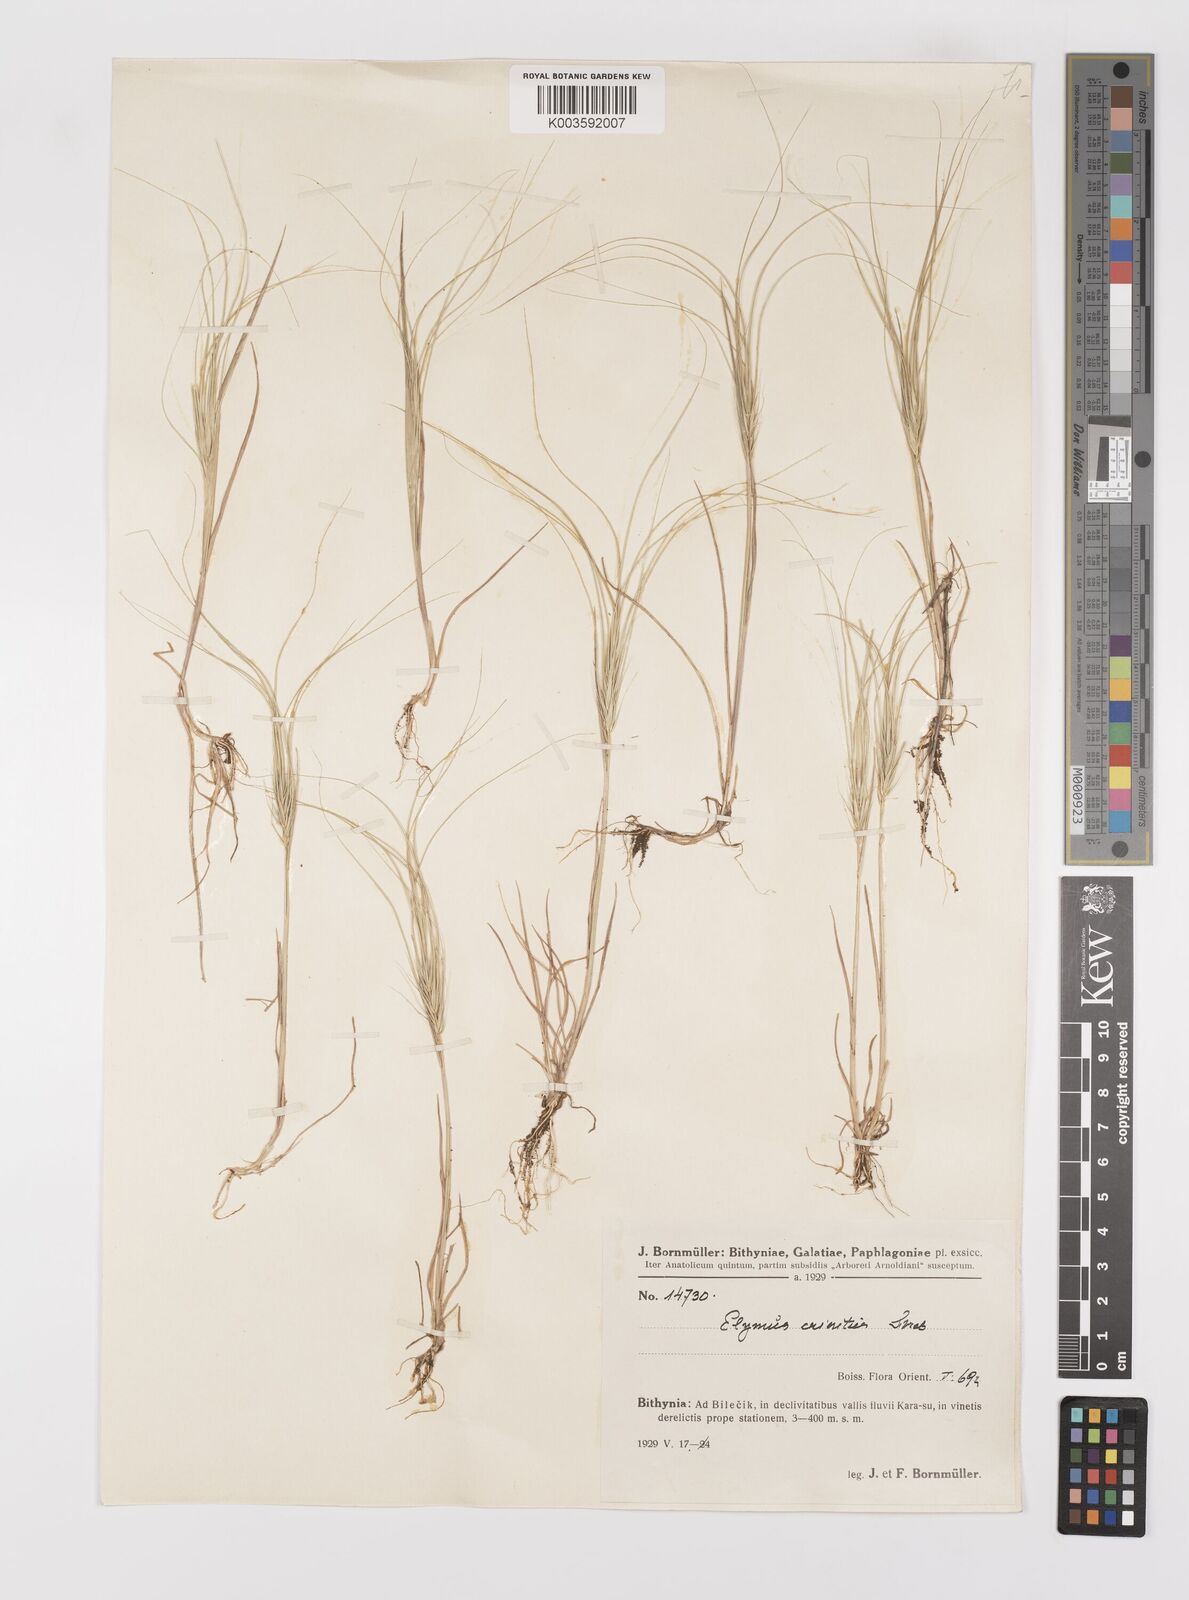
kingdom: Plantae
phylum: Tracheophyta
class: Liliopsida
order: Poales
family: Poaceae
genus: Taeniatherum
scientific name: Taeniatherum caput-medusae
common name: Medusahead
